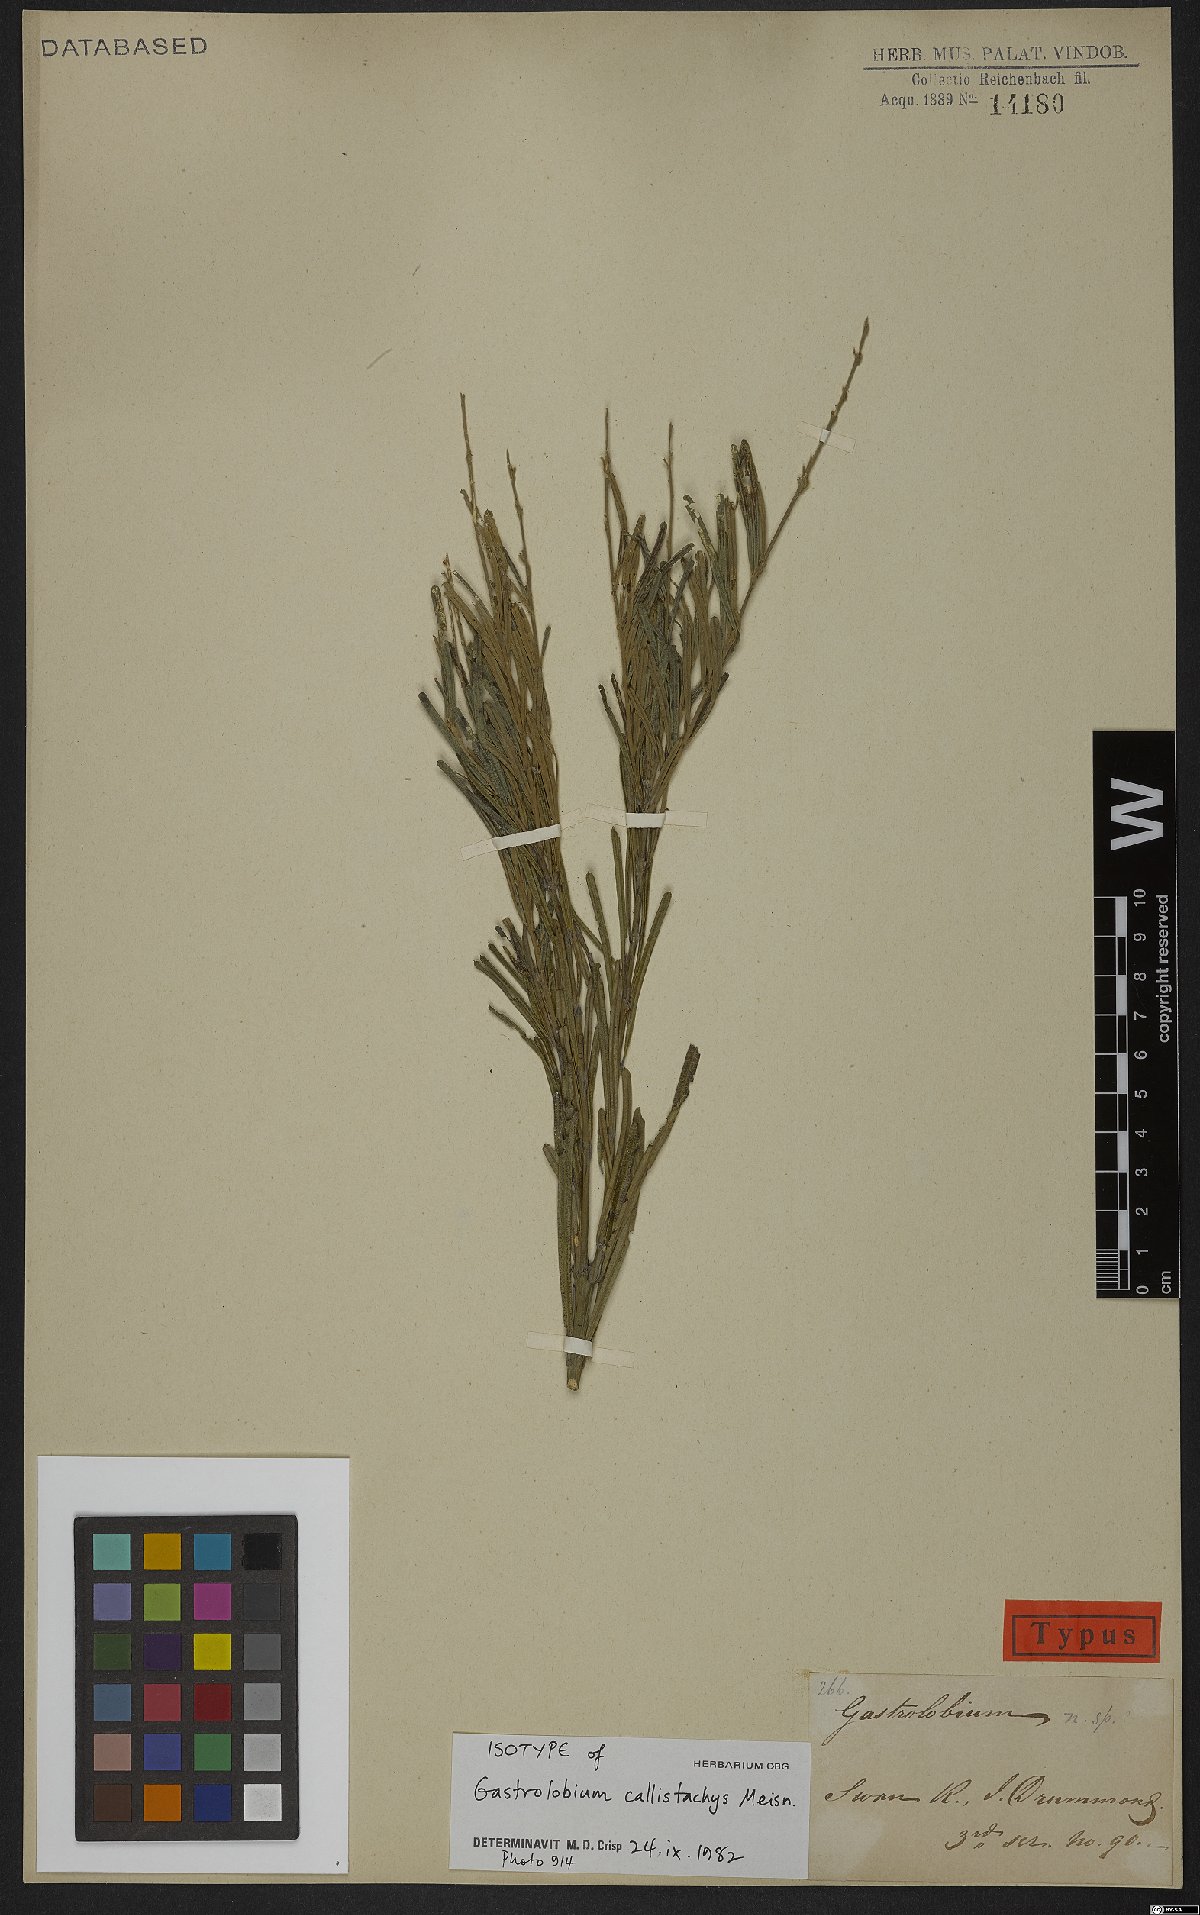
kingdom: Plantae
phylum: Tracheophyta
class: Magnoliopsida
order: Fabales
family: Fabaceae
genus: Gastrolobium
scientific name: Gastrolobium callistachys
